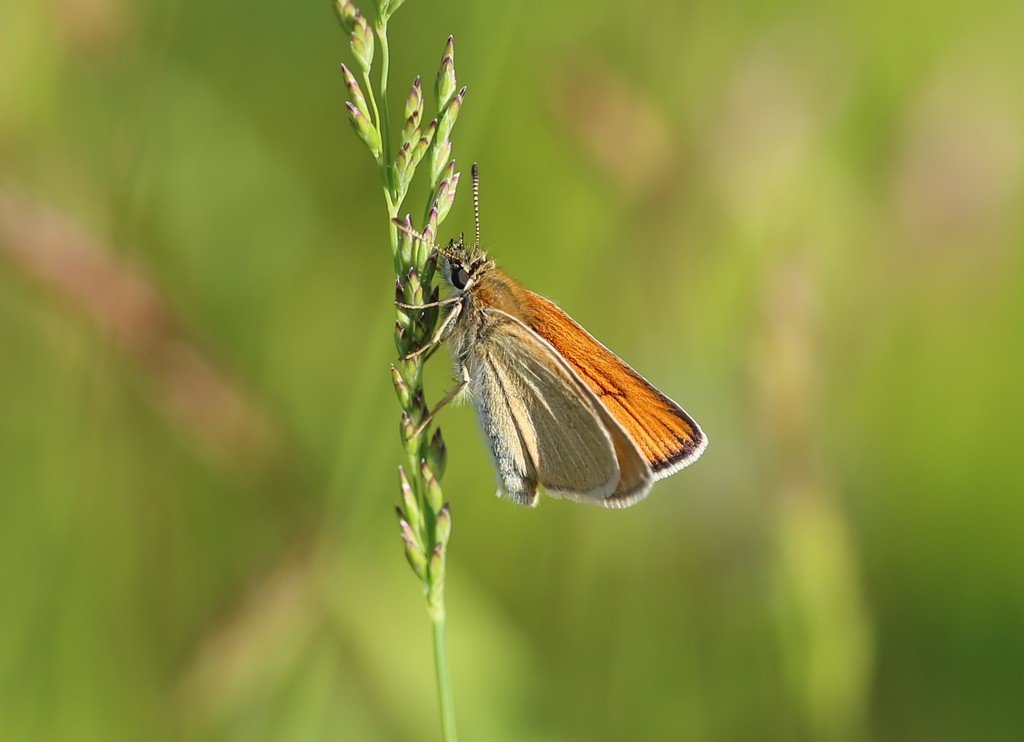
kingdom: Animalia
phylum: Arthropoda
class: Insecta
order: Lepidoptera
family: Hesperiidae
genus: Thymelicus
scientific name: Thymelicus lineola
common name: European Skipper
